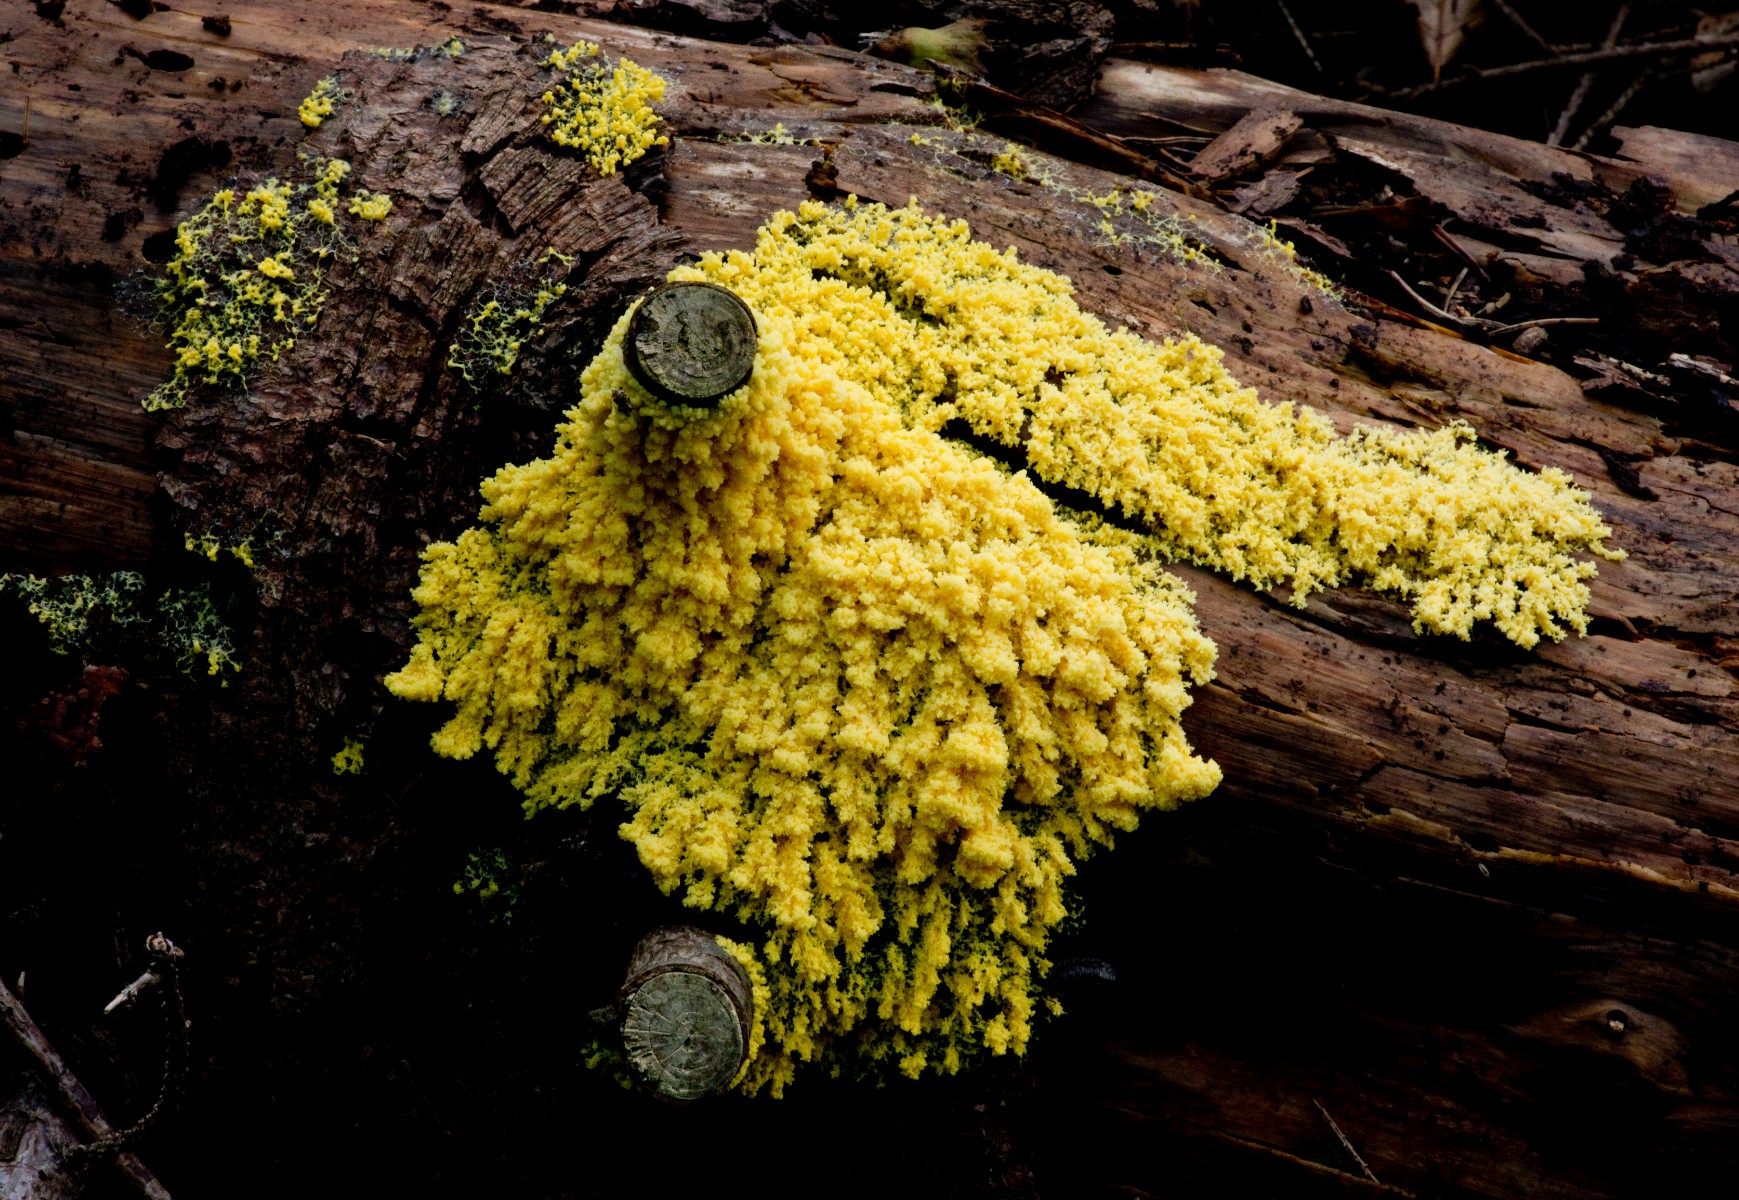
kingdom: Protozoa
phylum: Mycetozoa
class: Myxomycetes
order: Physarales
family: Physaraceae
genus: Fuligo
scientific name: Fuligo septica
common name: gul troldsmør
